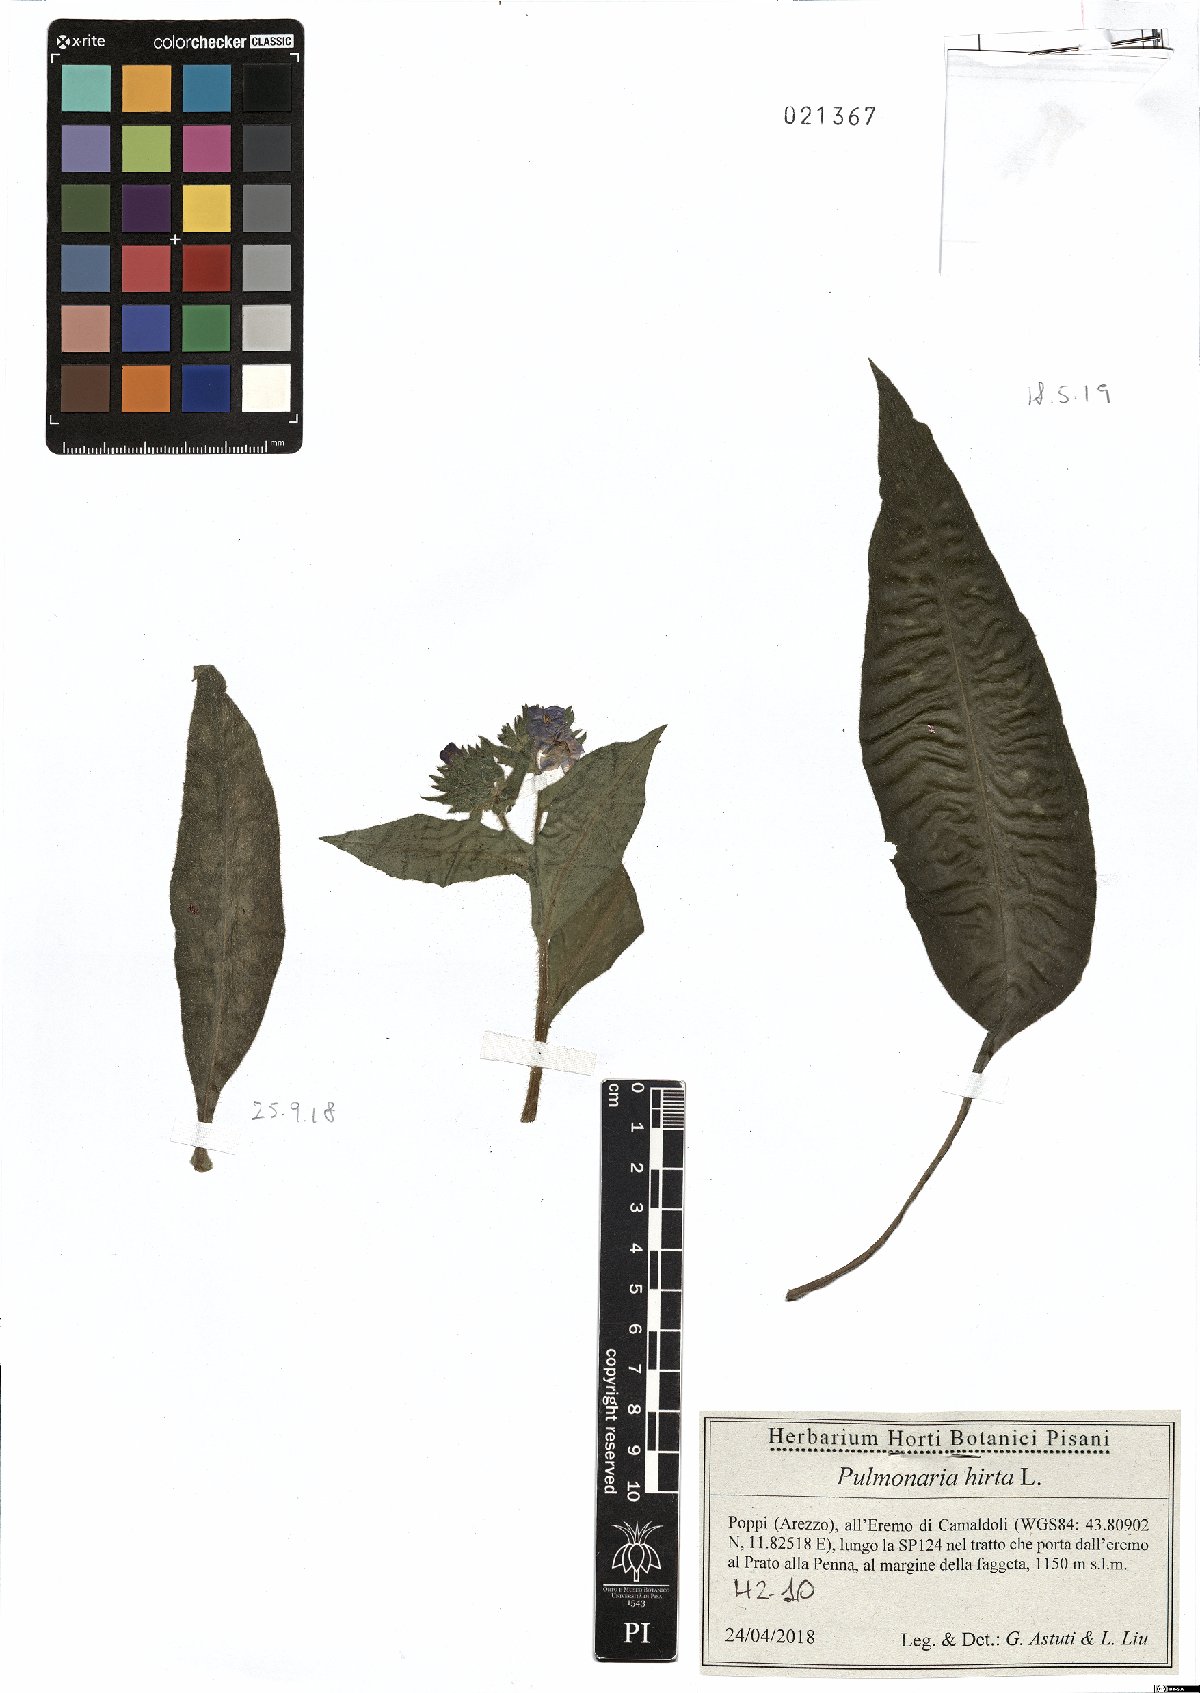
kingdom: Plantae
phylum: Tracheophyta
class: Magnoliopsida
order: Boraginales
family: Boraginaceae
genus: Pulmonaria
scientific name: Pulmonaria hirta
